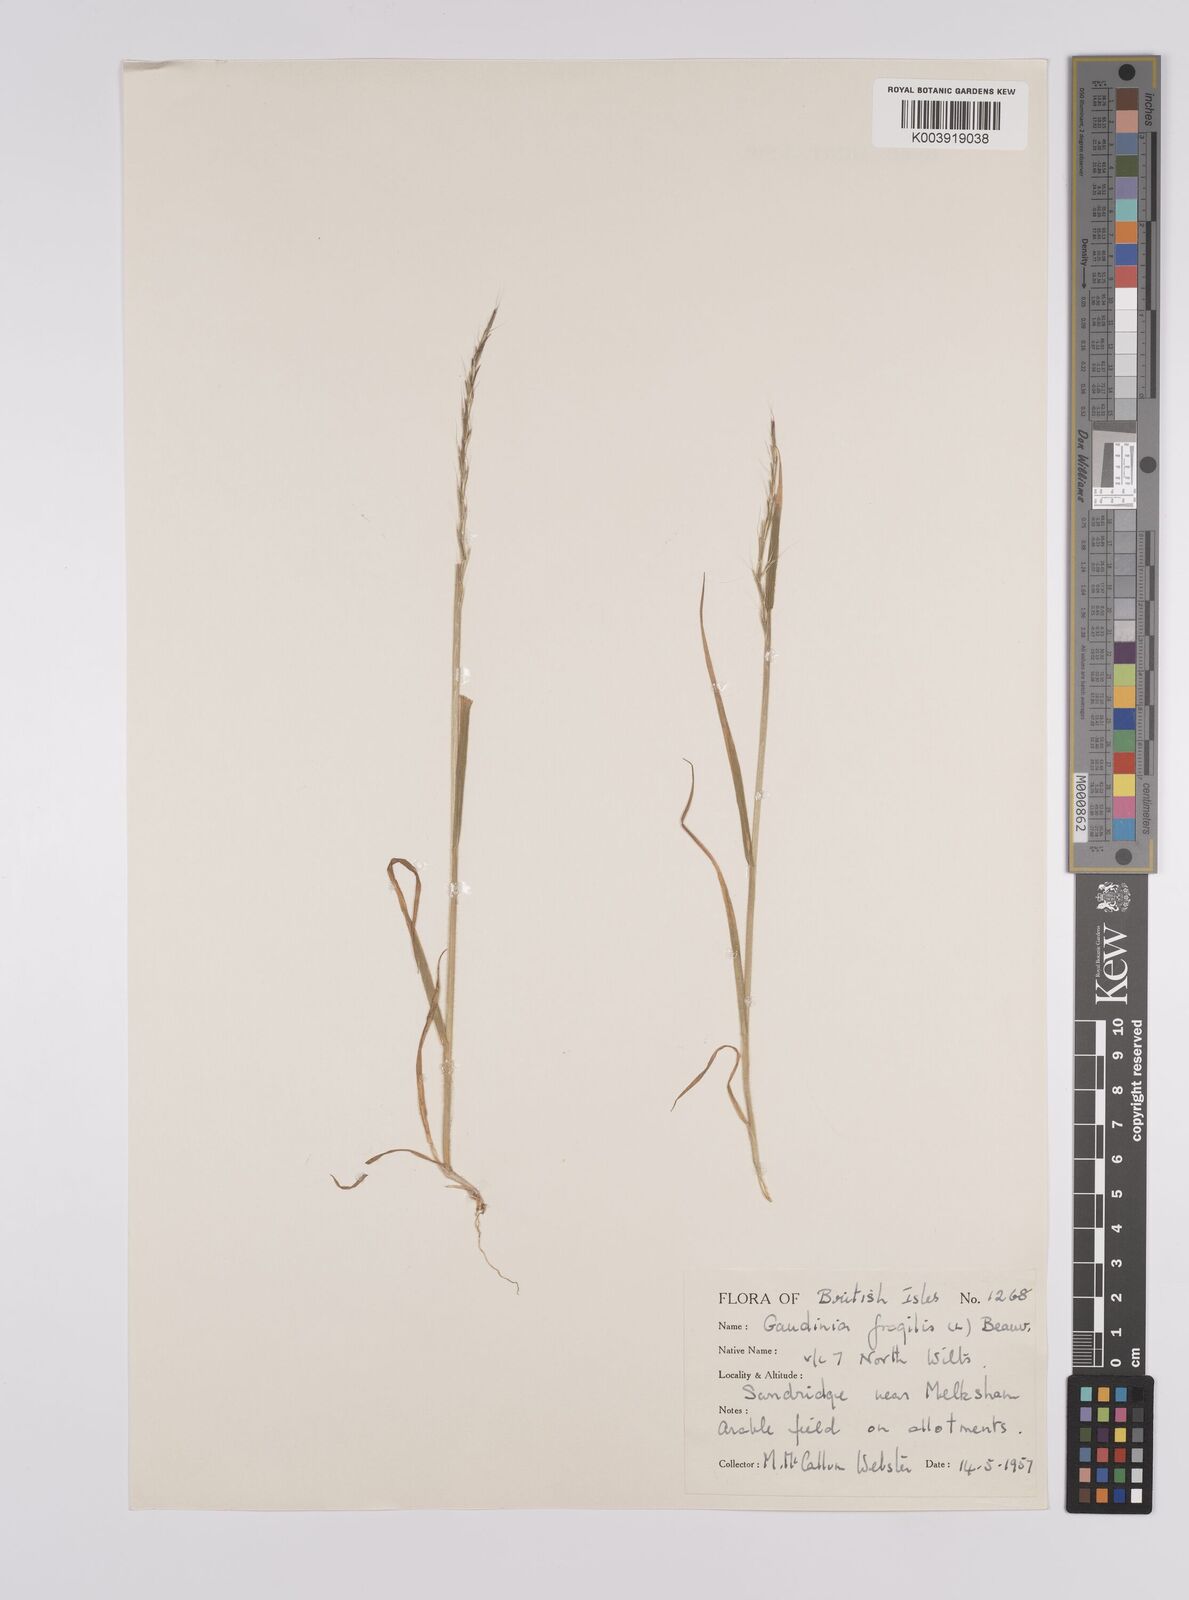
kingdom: Plantae
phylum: Tracheophyta
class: Liliopsida
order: Poales
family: Poaceae
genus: Gaudinia
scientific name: Gaudinia fragilis
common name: French oat-grass
